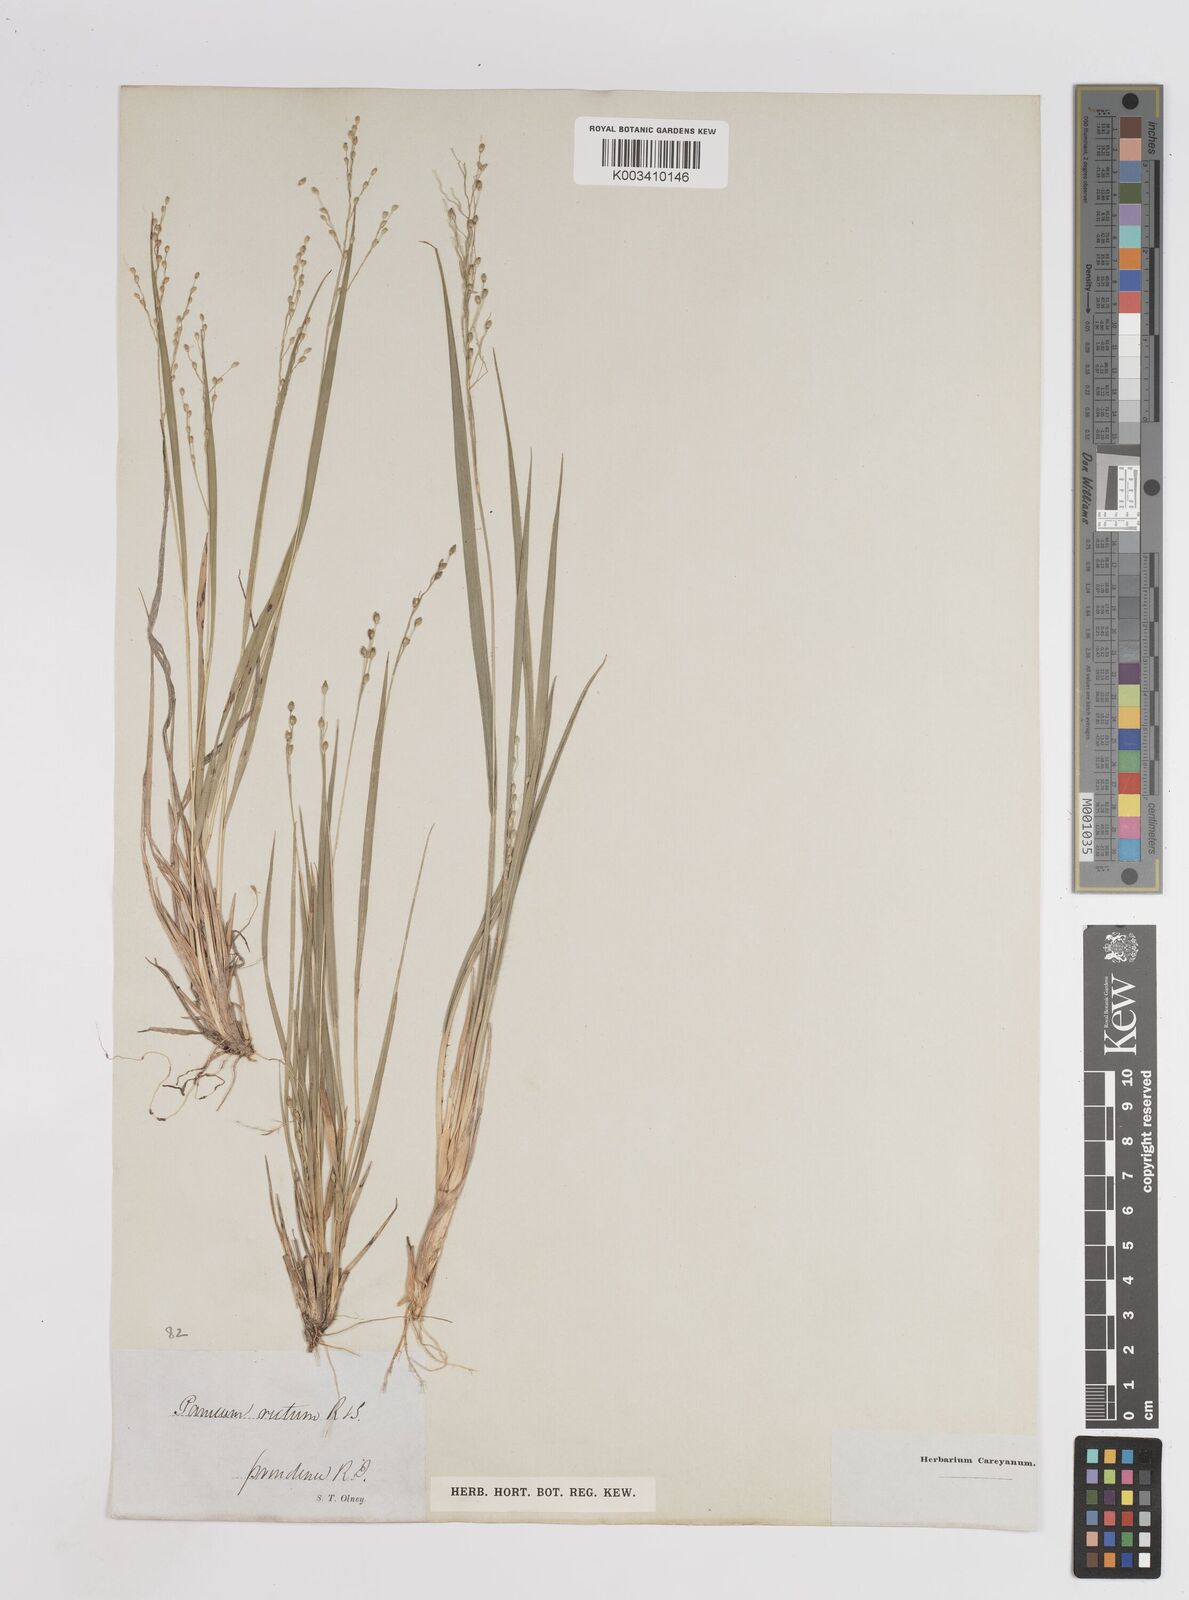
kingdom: Plantae
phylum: Tracheophyta
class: Liliopsida
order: Poales
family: Poaceae
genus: Dichanthelium
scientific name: Dichanthelium depauperatum
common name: Depauperate panicgrass
